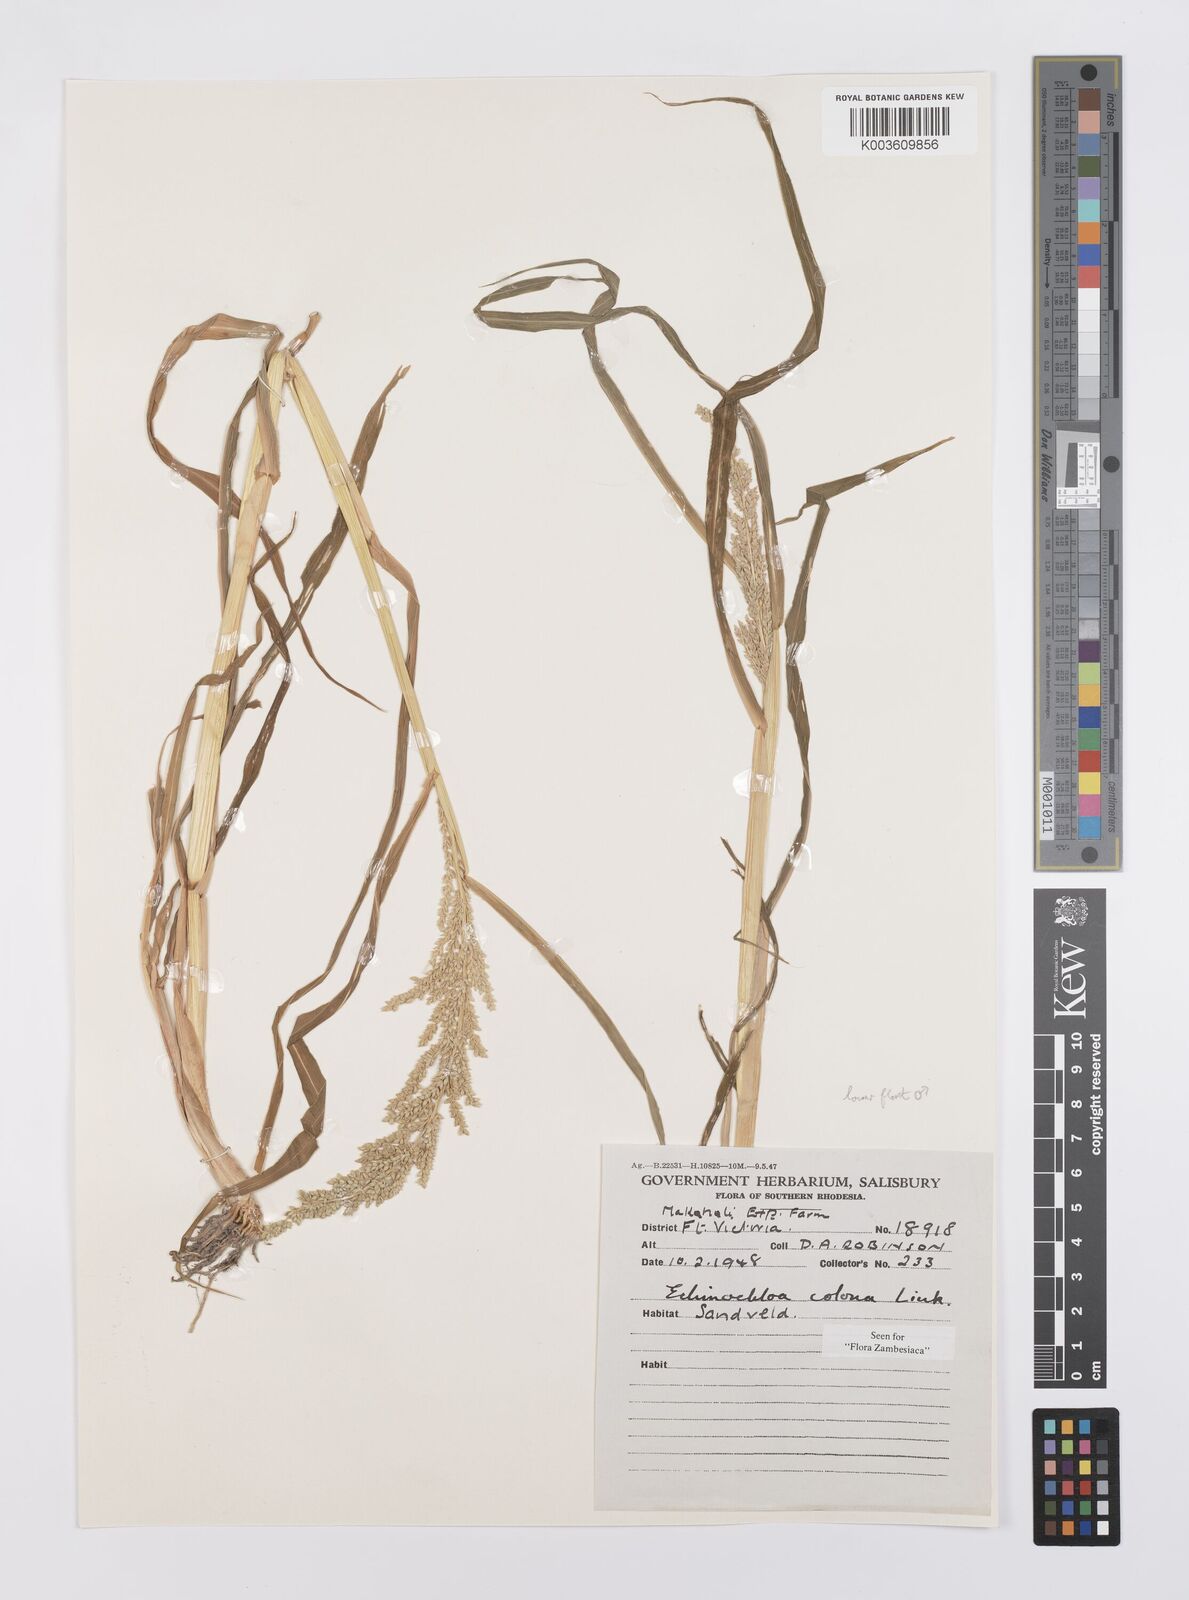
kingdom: Plantae
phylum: Tracheophyta
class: Liliopsida
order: Poales
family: Poaceae
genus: Echinochloa
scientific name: Echinochloa colonum
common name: Jungle rice
